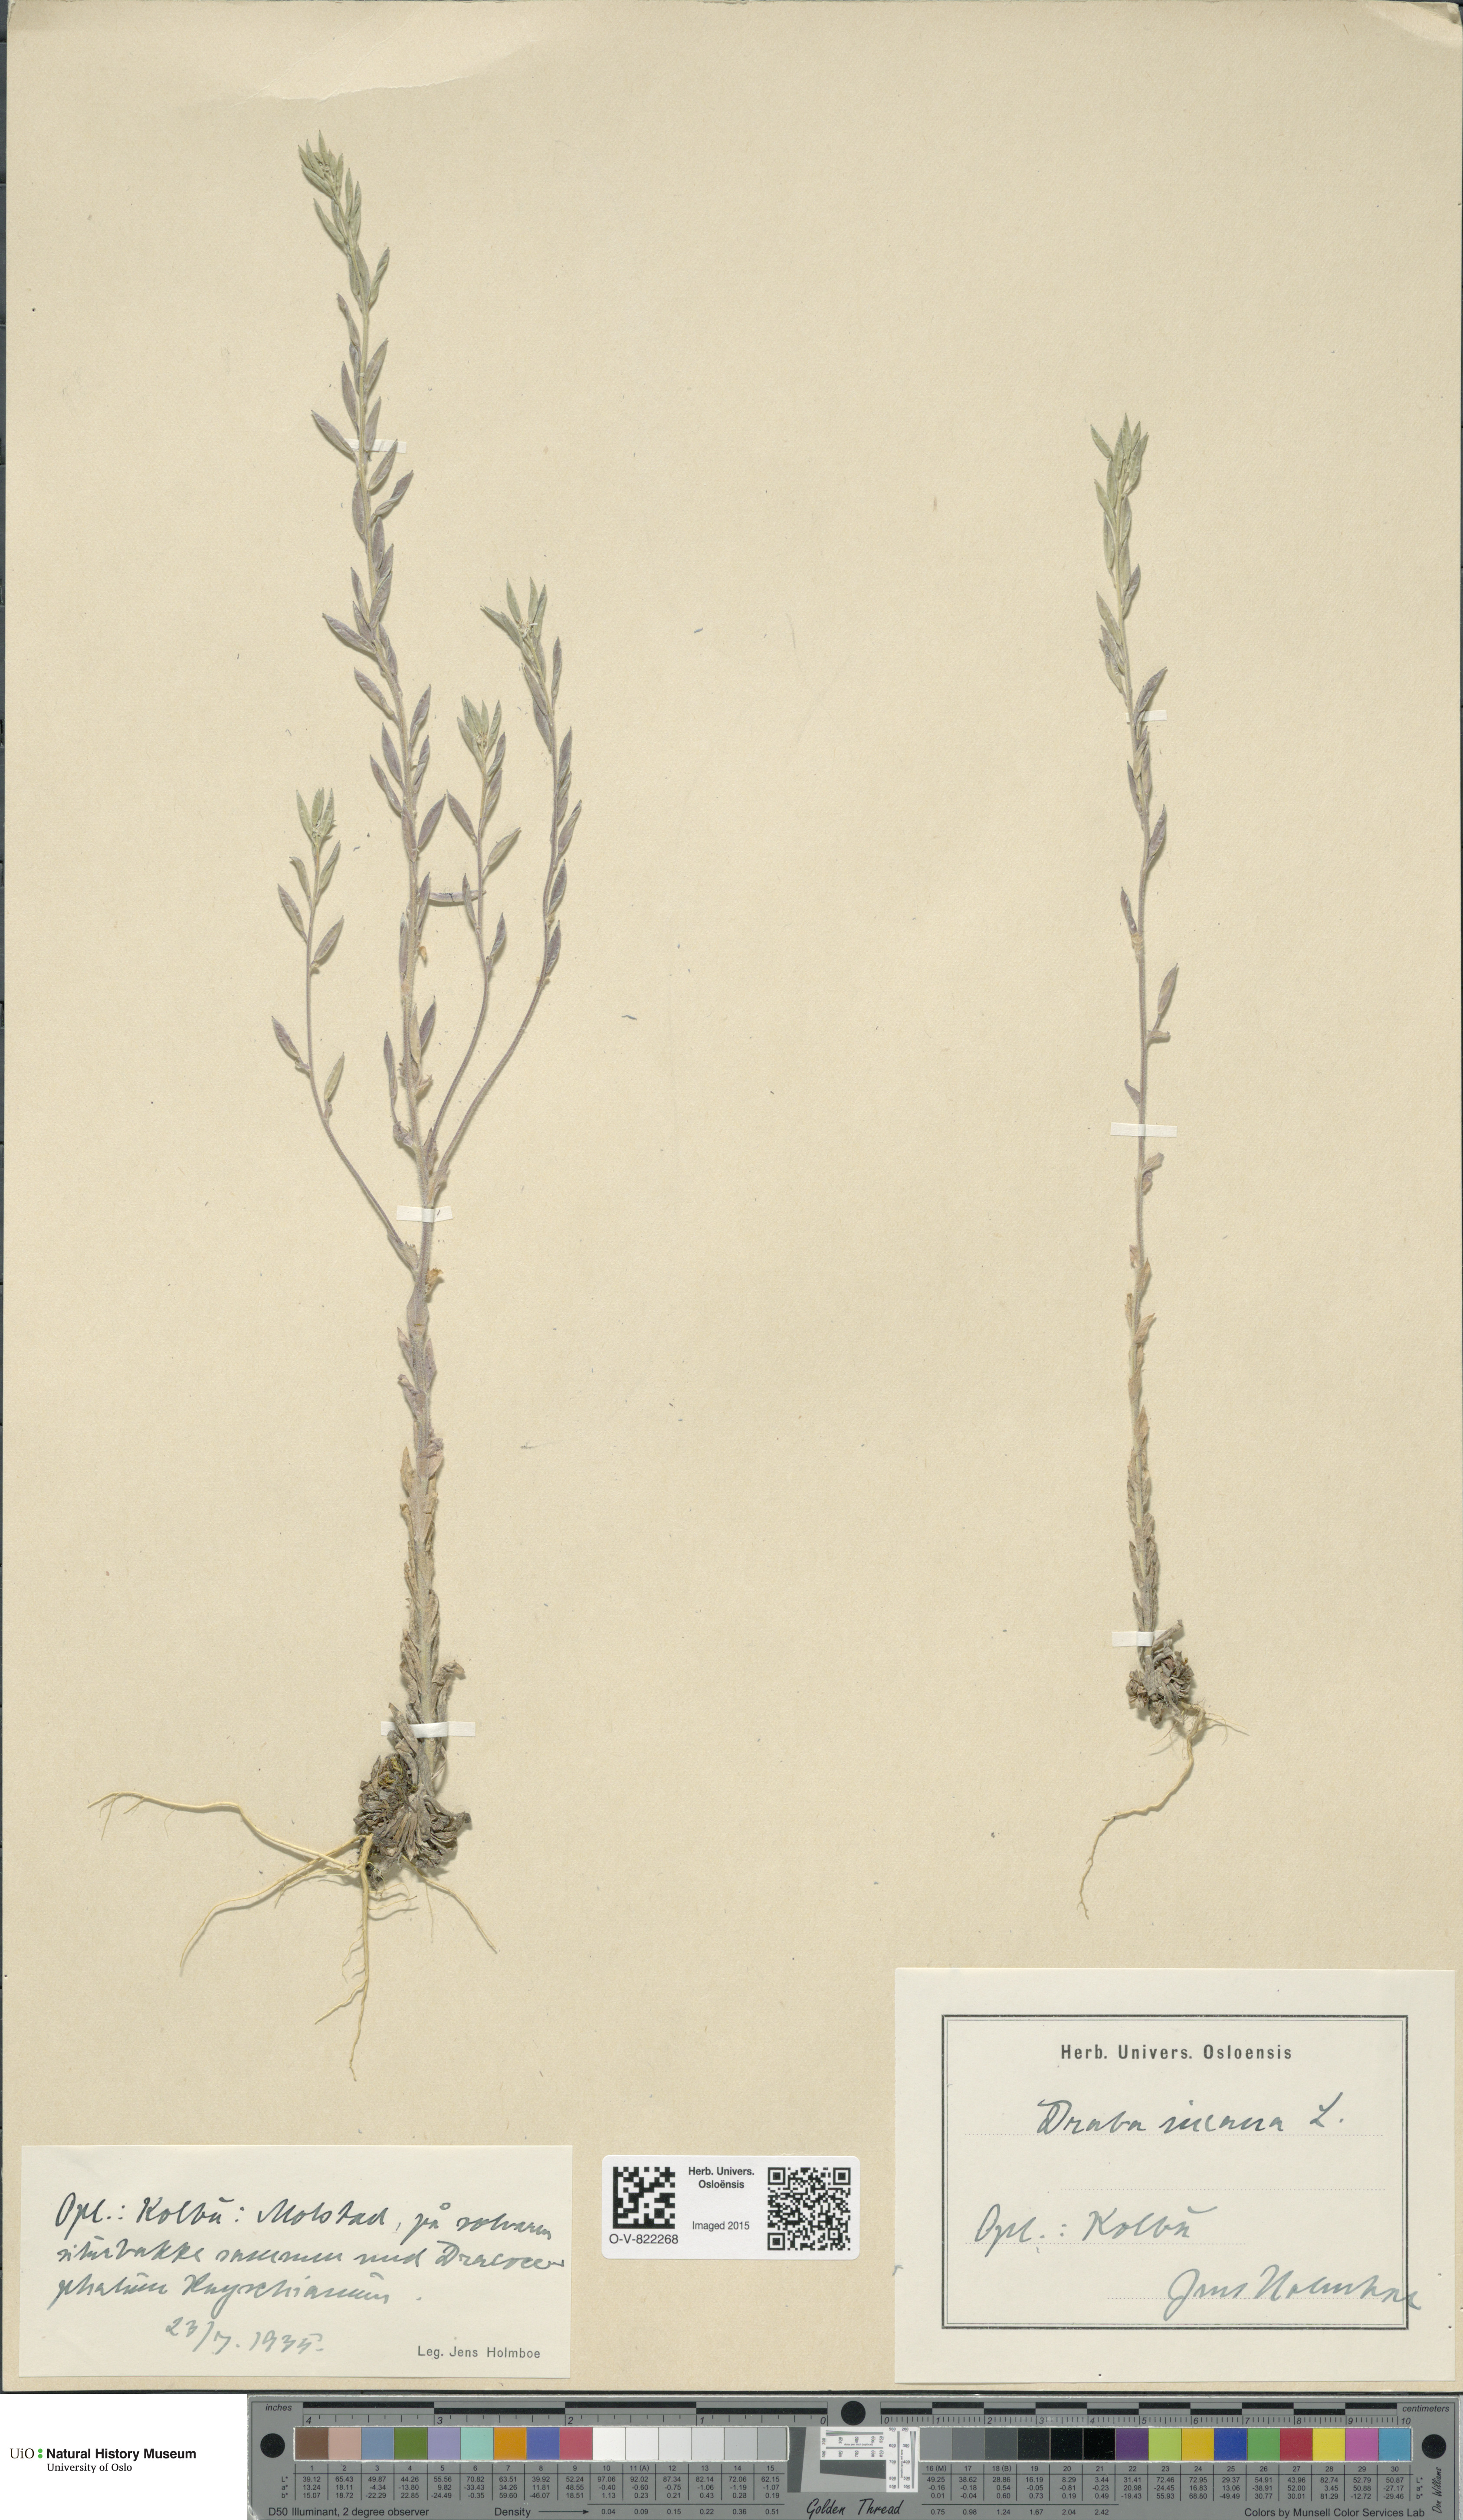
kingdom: Plantae
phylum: Tracheophyta
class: Magnoliopsida
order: Brassicales
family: Brassicaceae
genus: Draba
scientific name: Draba incana
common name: Hoary whitlow-grass
